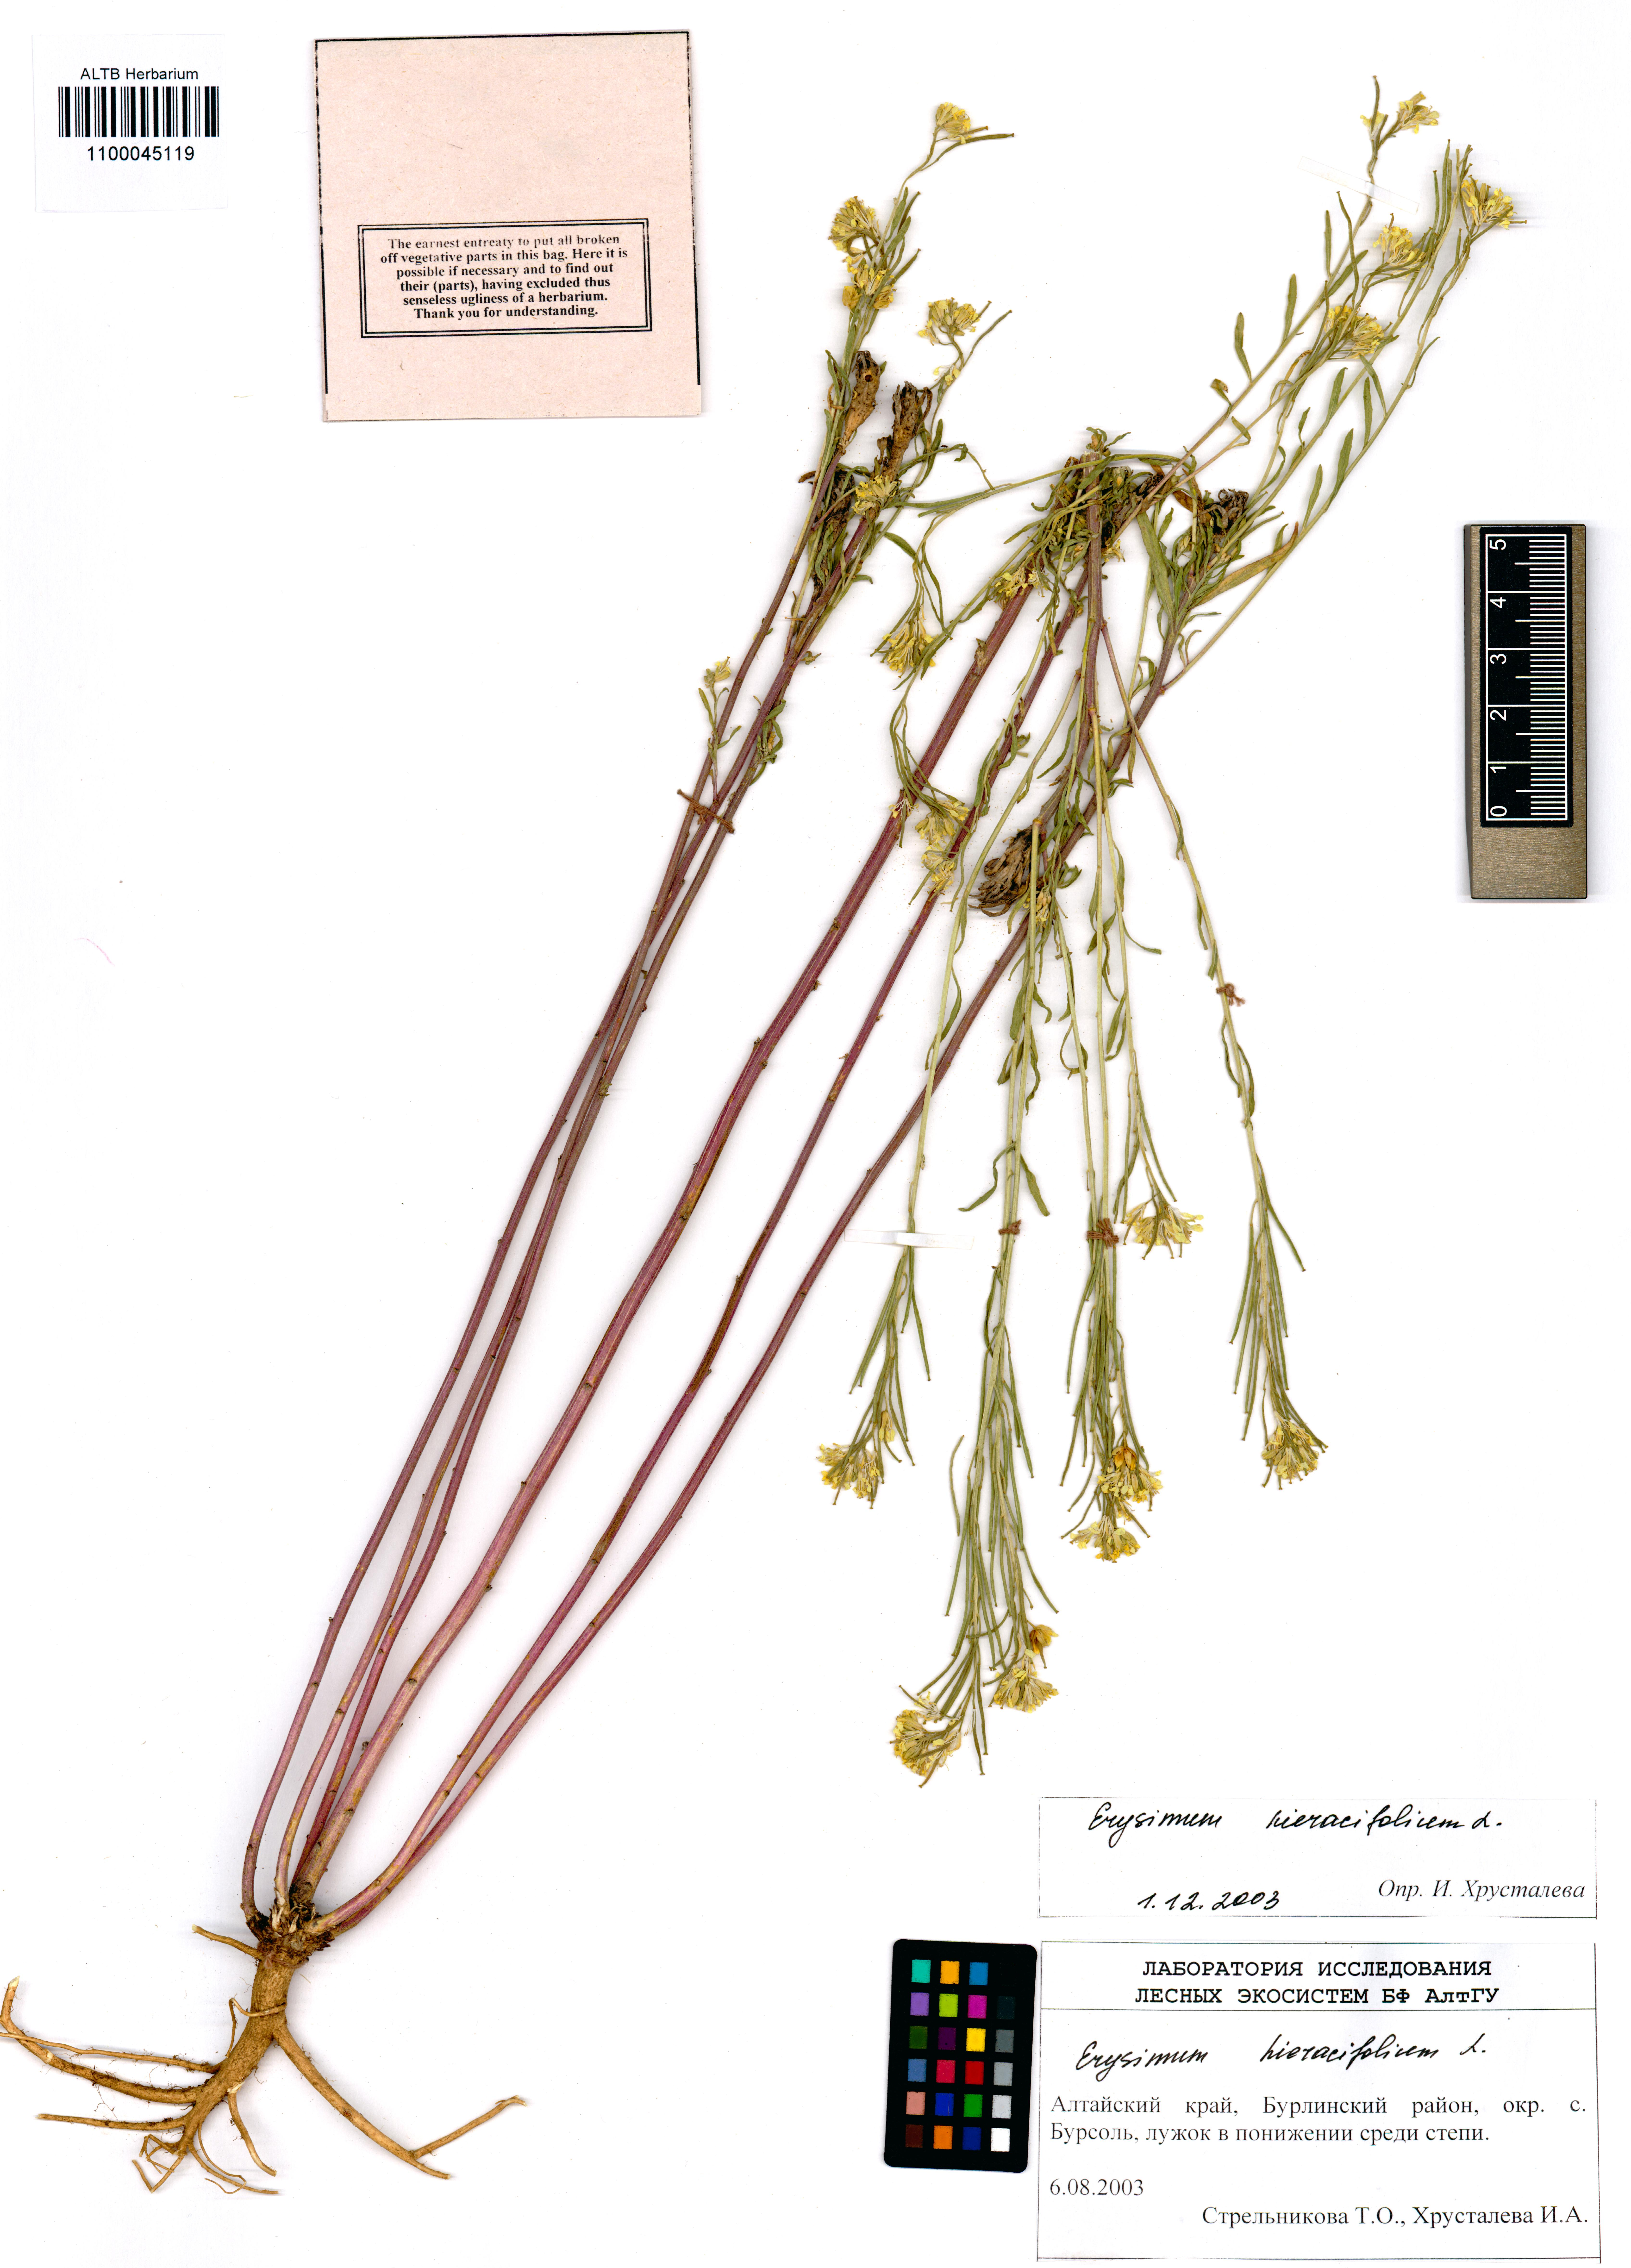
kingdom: Plantae
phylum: Tracheophyta
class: Magnoliopsida
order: Brassicales
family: Brassicaceae
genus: Erysimum
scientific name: Erysimum hieraciifolium
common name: European wallflower
